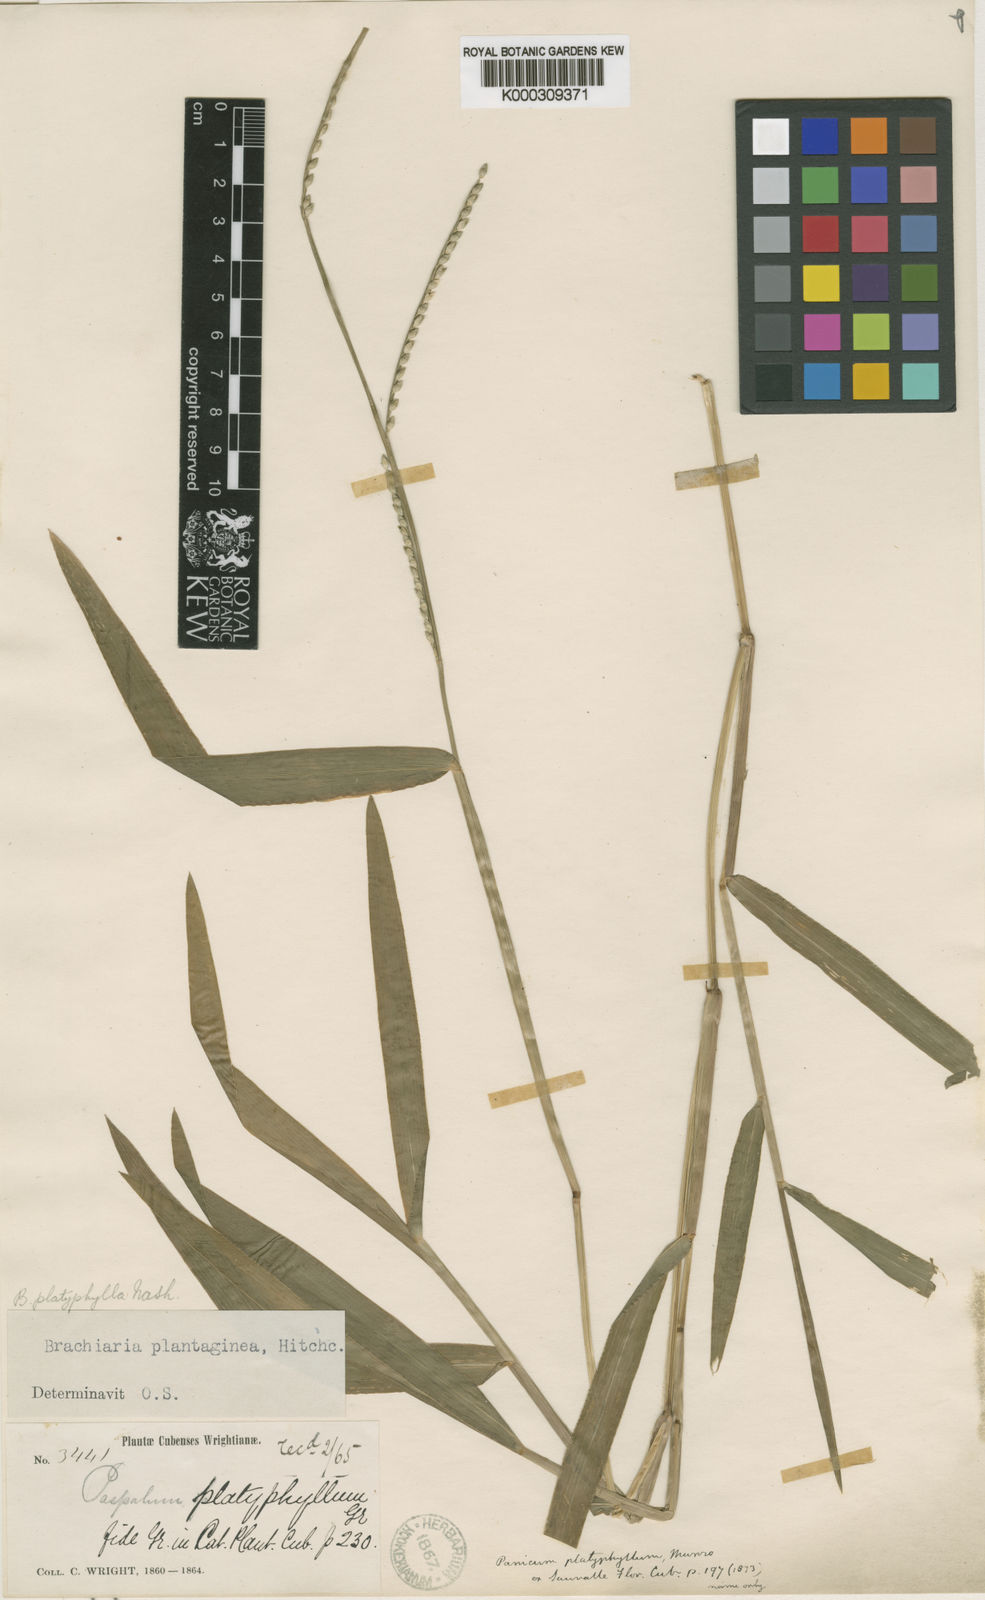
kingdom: Plantae
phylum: Tracheophyta
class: Liliopsida
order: Poales
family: Poaceae
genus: Urochloa
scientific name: Urochloa platyphylla
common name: White para grass
